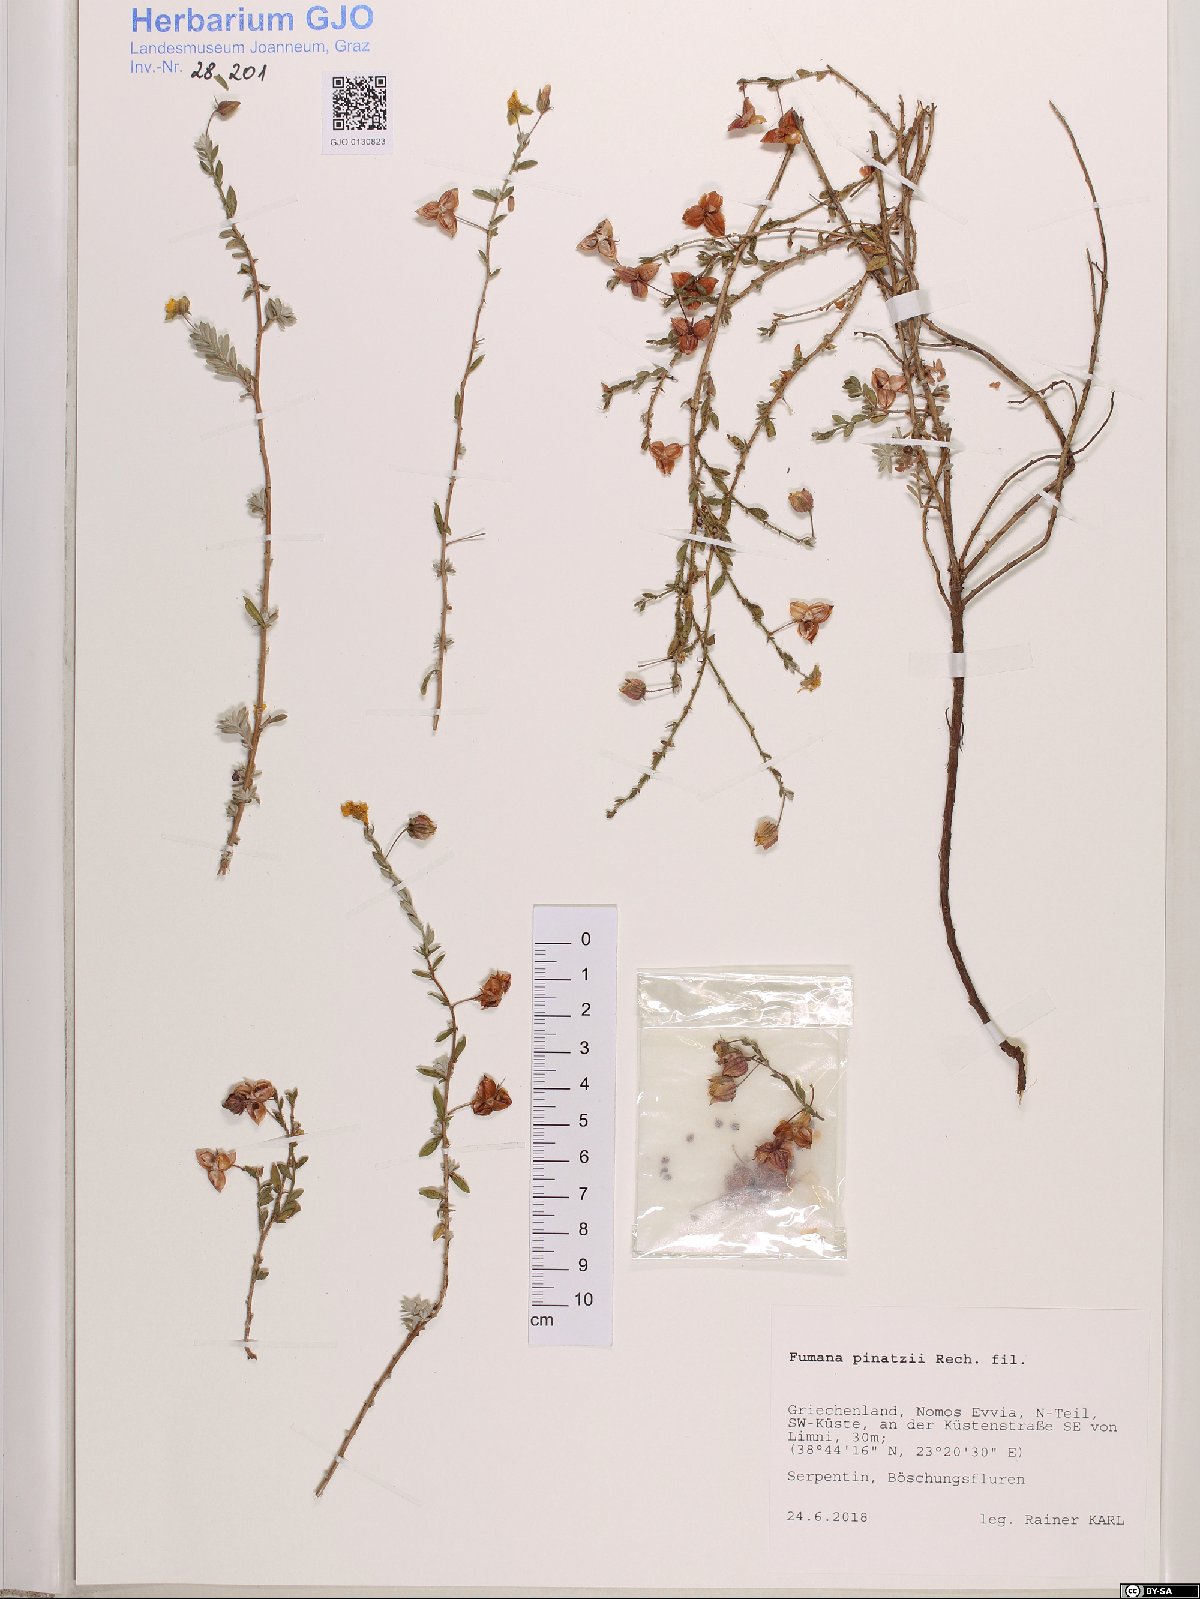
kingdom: Plantae
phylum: Tracheophyta
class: Magnoliopsida
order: Malvales
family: Cistaceae
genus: Fumana
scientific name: Fumana arabica
